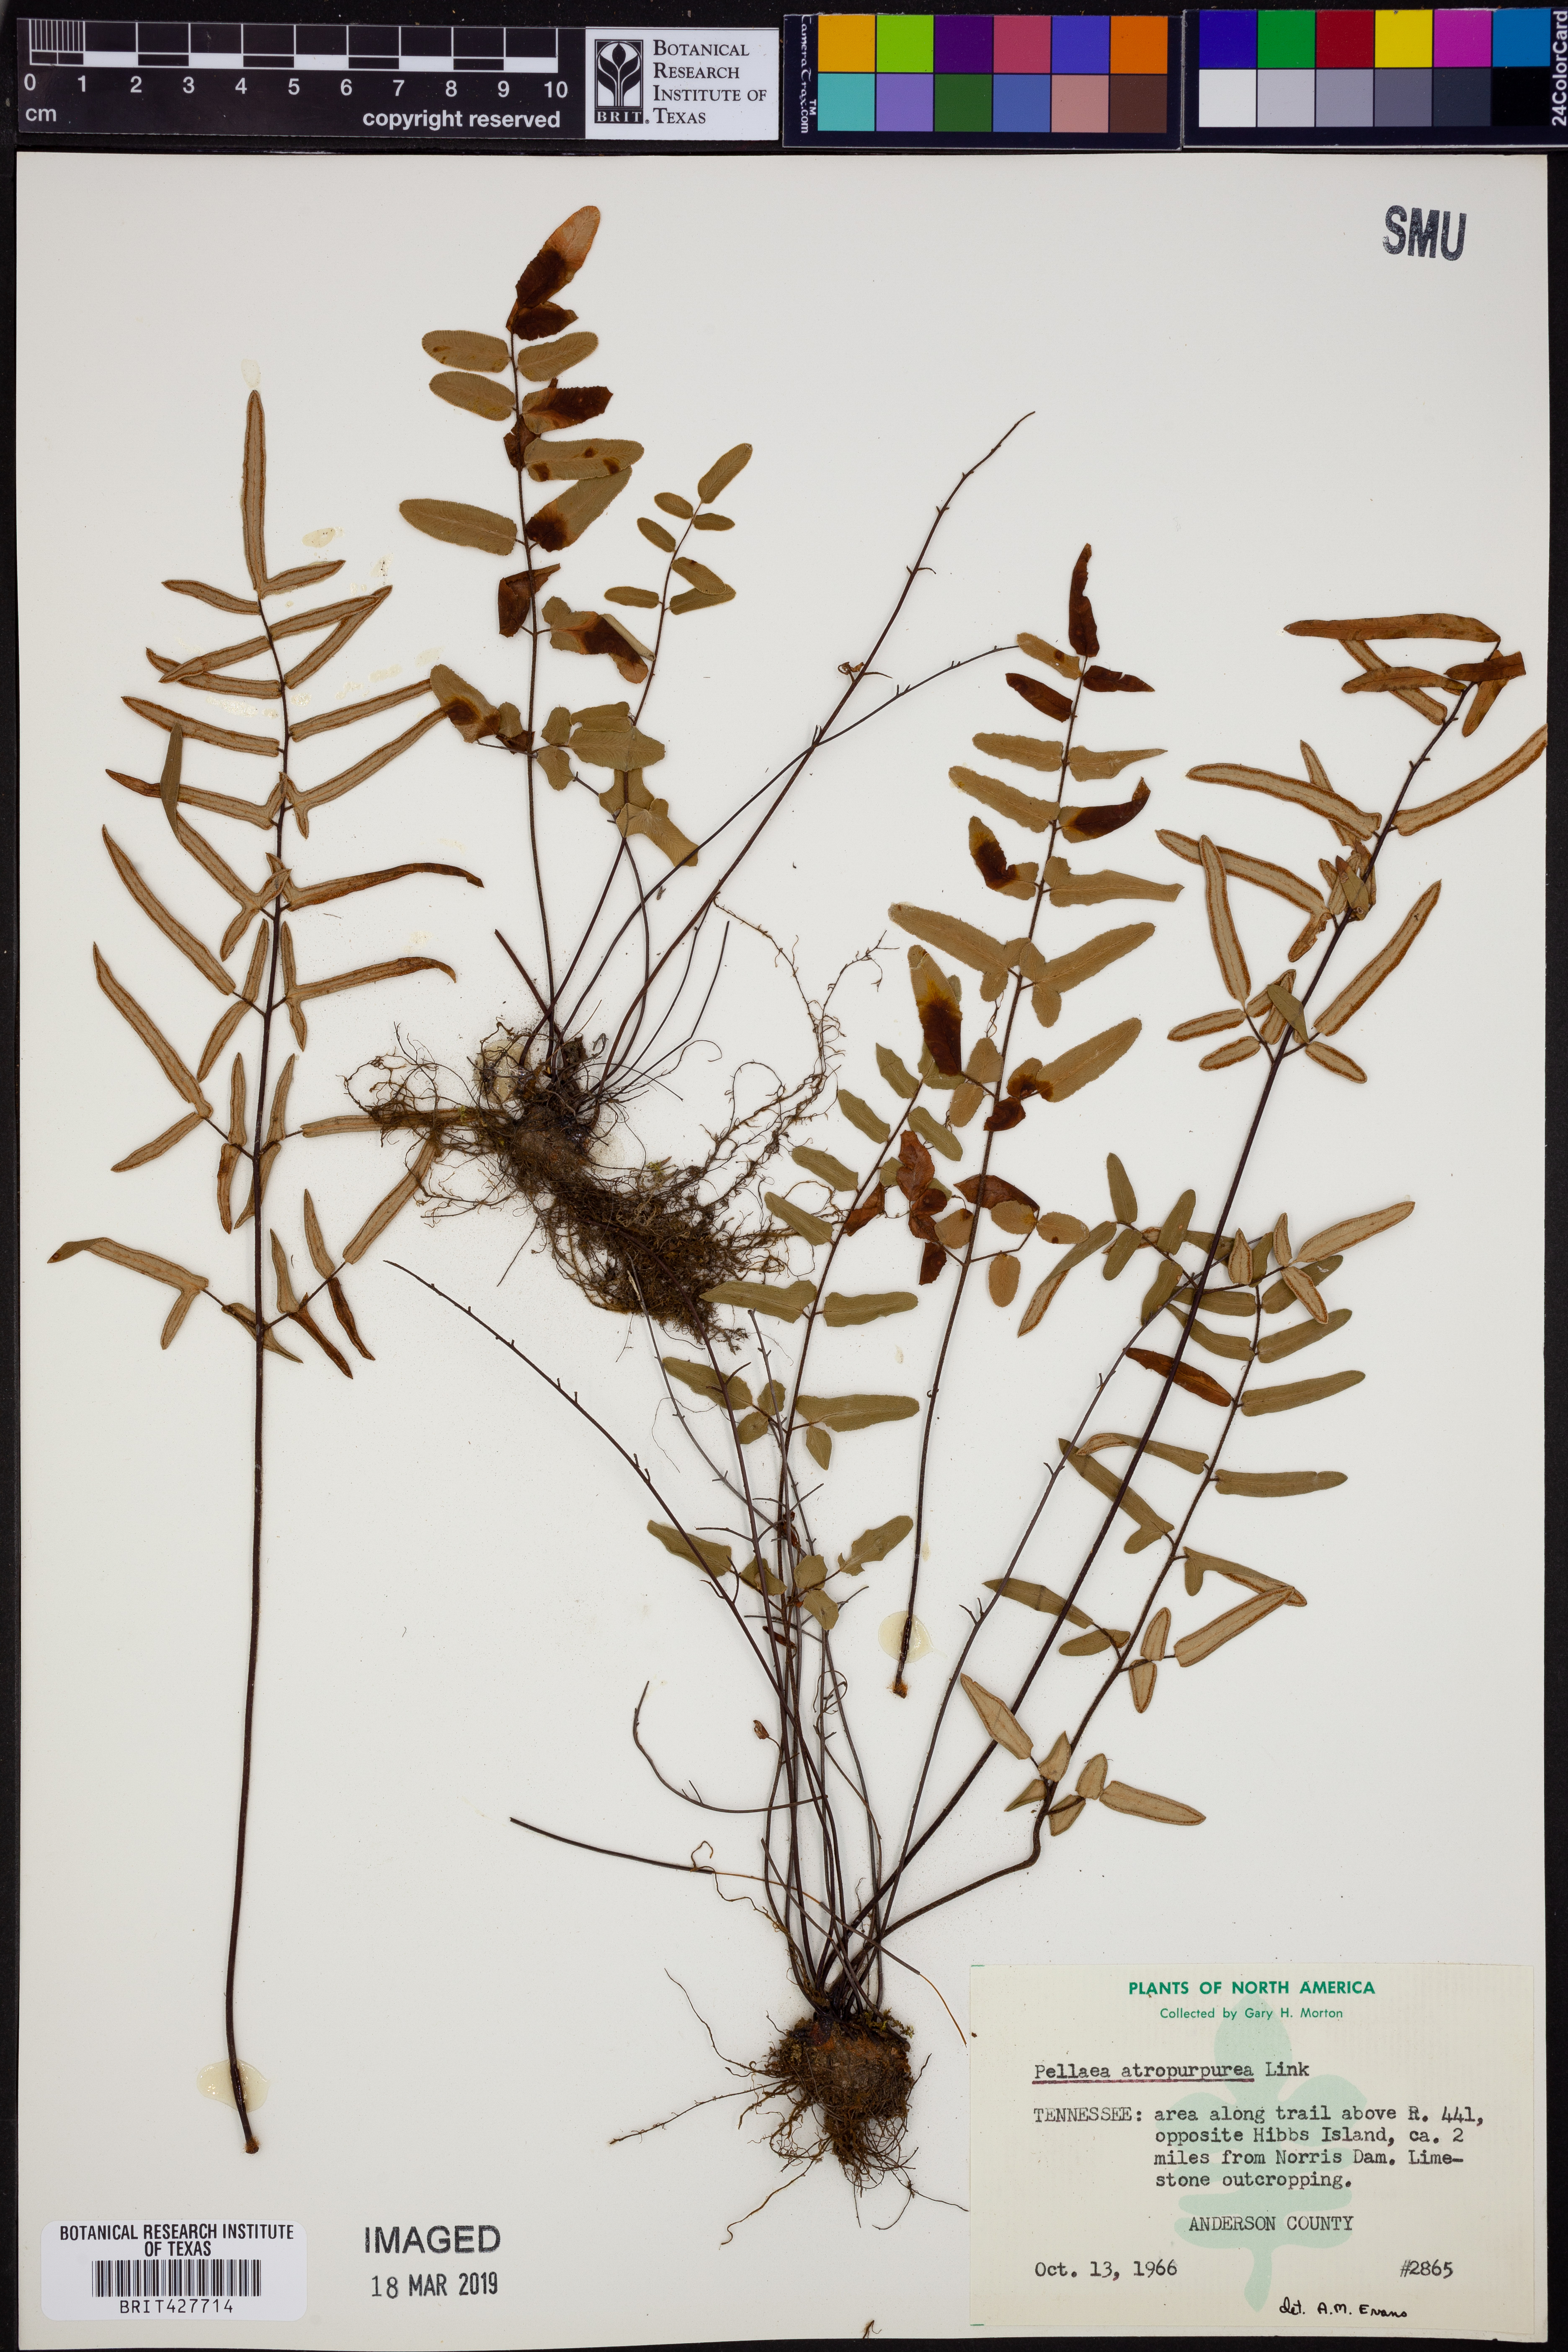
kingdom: Plantae
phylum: Tracheophyta
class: Polypodiopsida
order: Polypodiales
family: Pteridaceae
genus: Pellaea
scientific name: Pellaea atropurpurea
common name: Hairy cliffbrake
